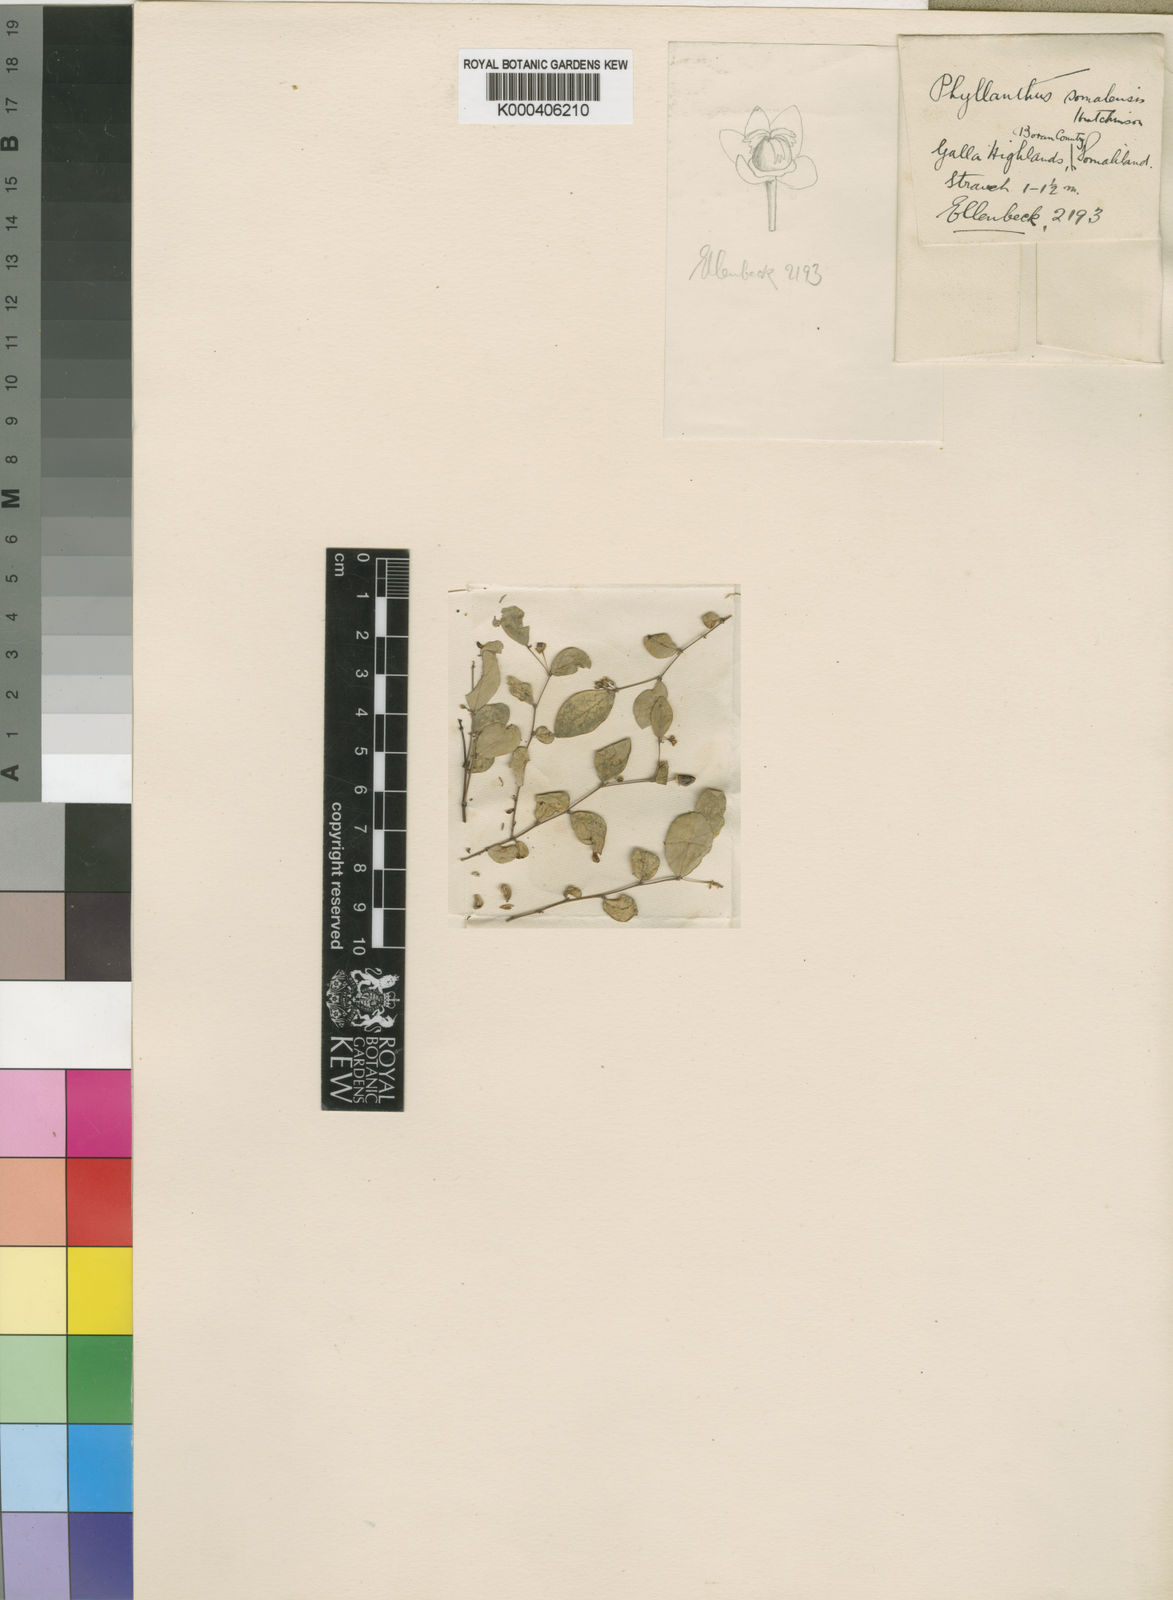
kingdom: Plantae
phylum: Tracheophyta
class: Magnoliopsida
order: Malpighiales
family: Phyllanthaceae
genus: Phyllanthus
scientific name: Phyllanthus somalensis
